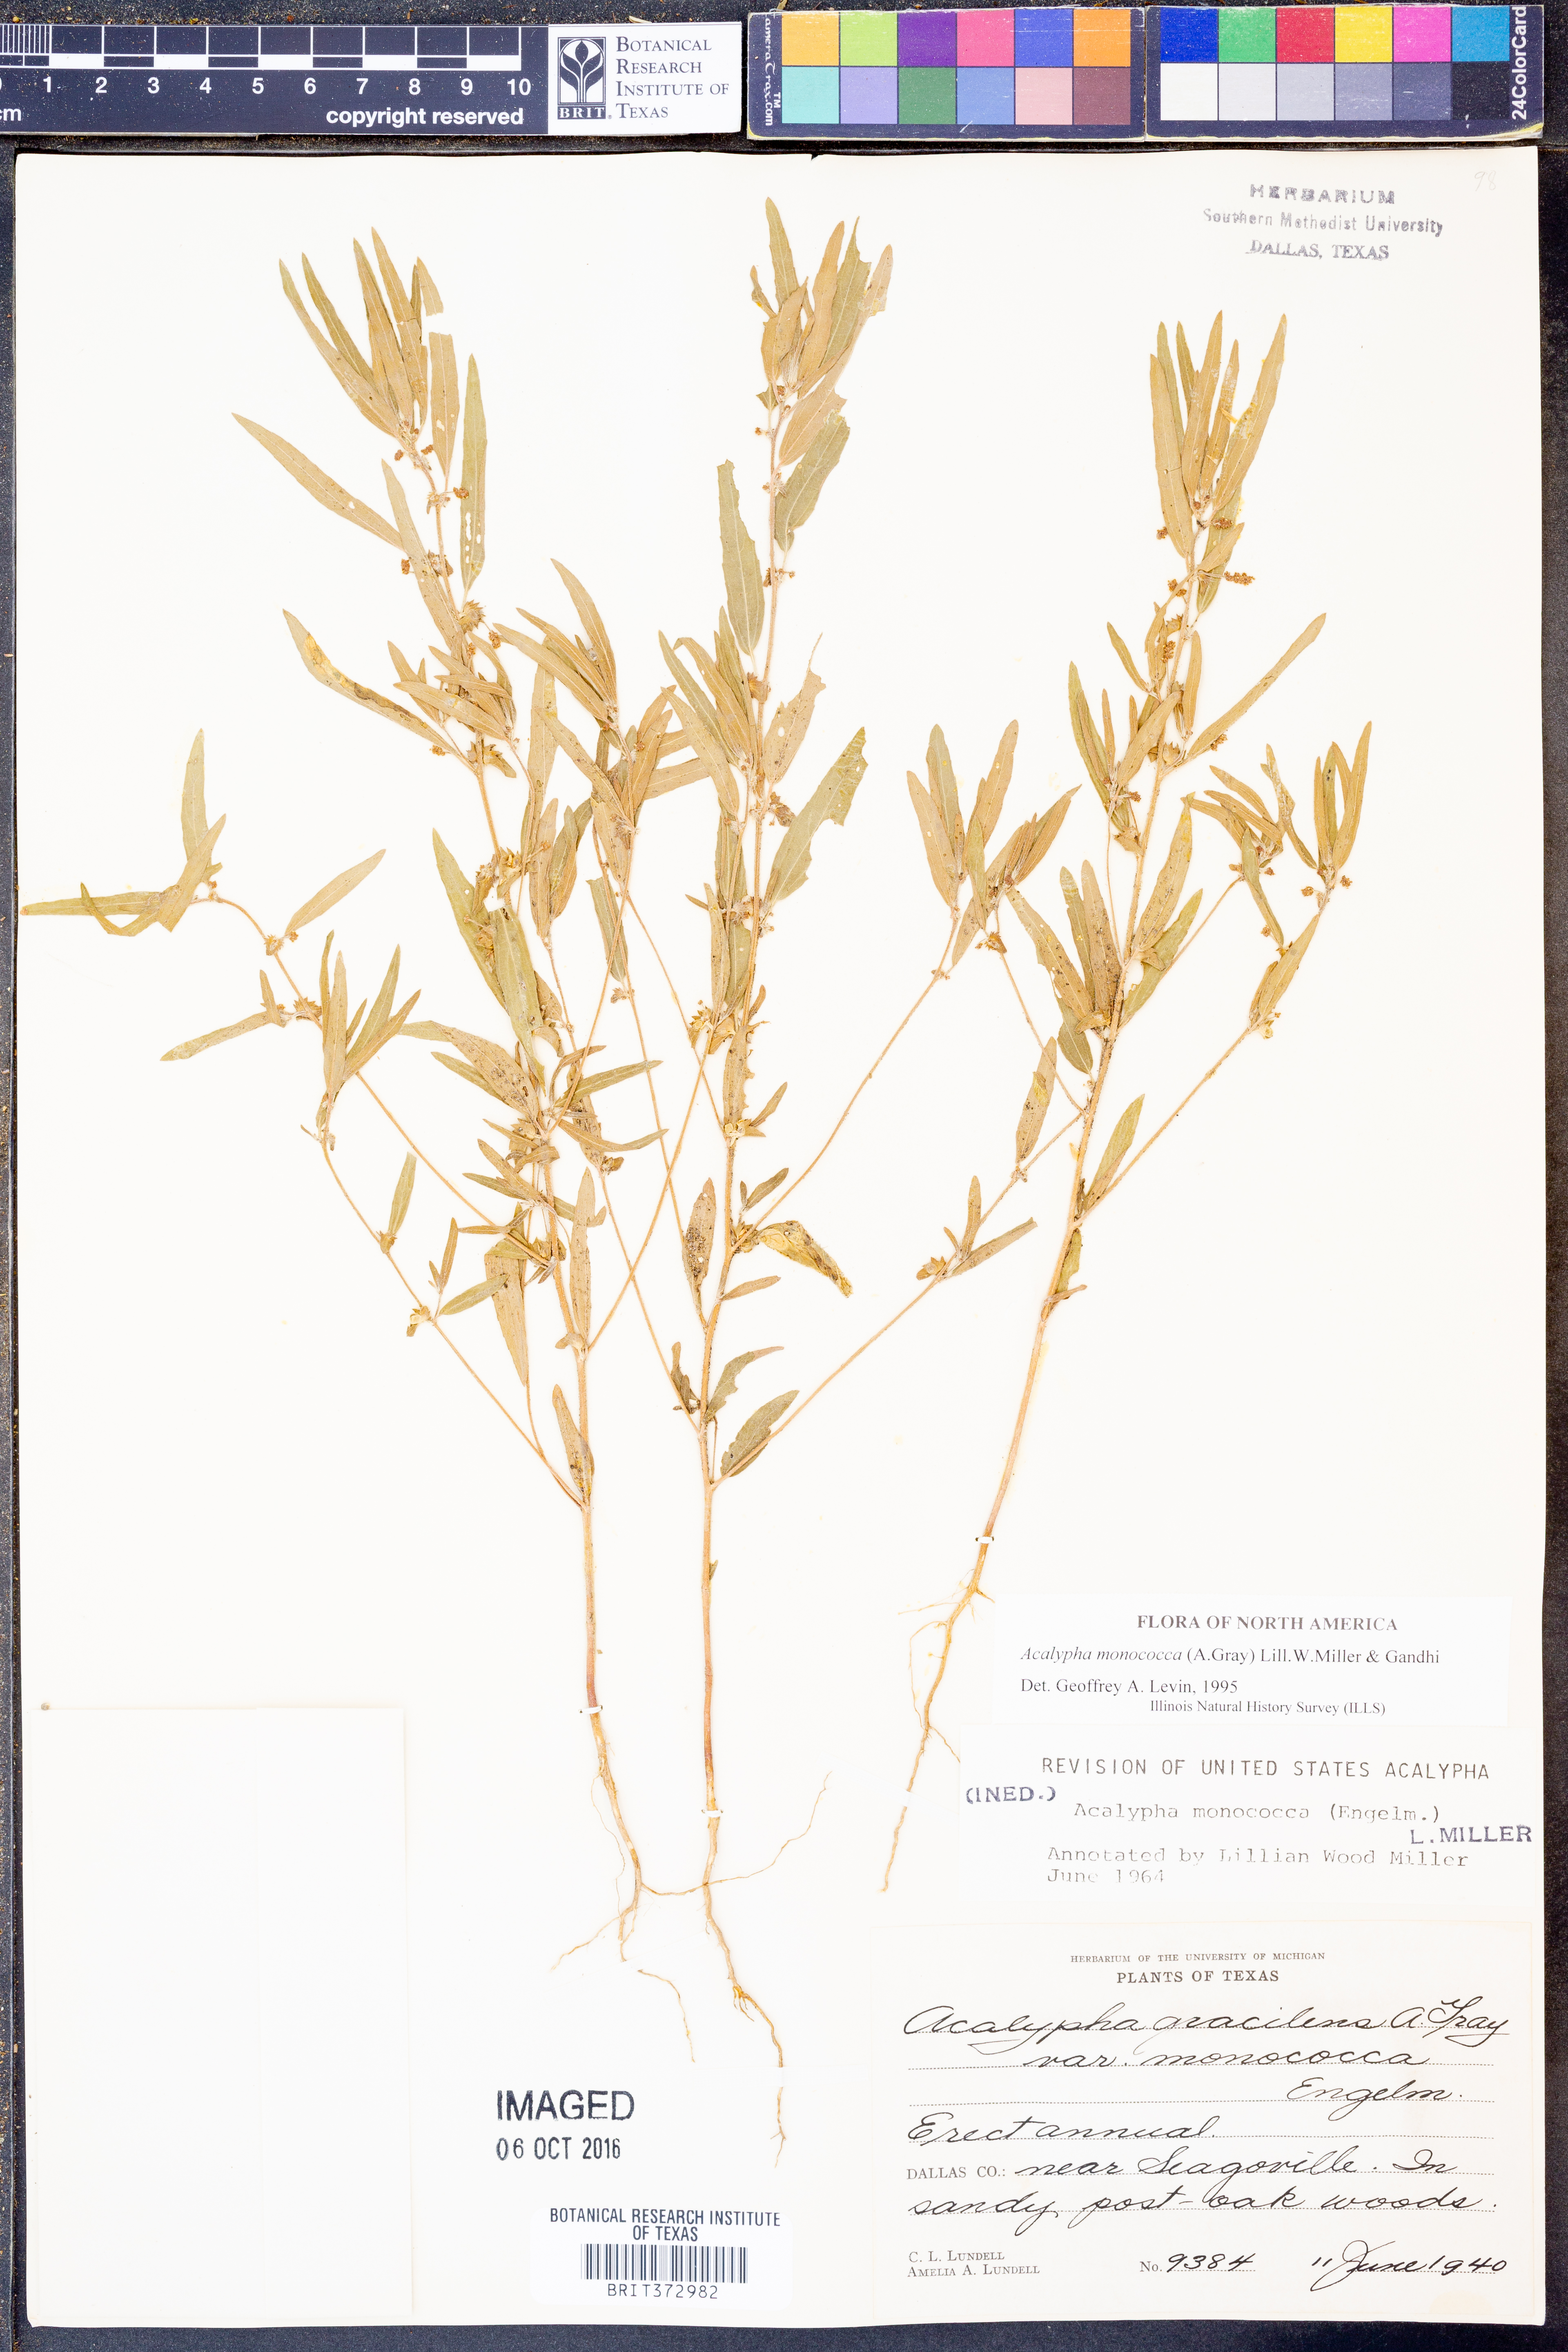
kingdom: Plantae
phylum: Tracheophyta
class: Magnoliopsida
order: Malpighiales
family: Euphorbiaceae
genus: Acalypha
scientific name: Acalypha monococca
